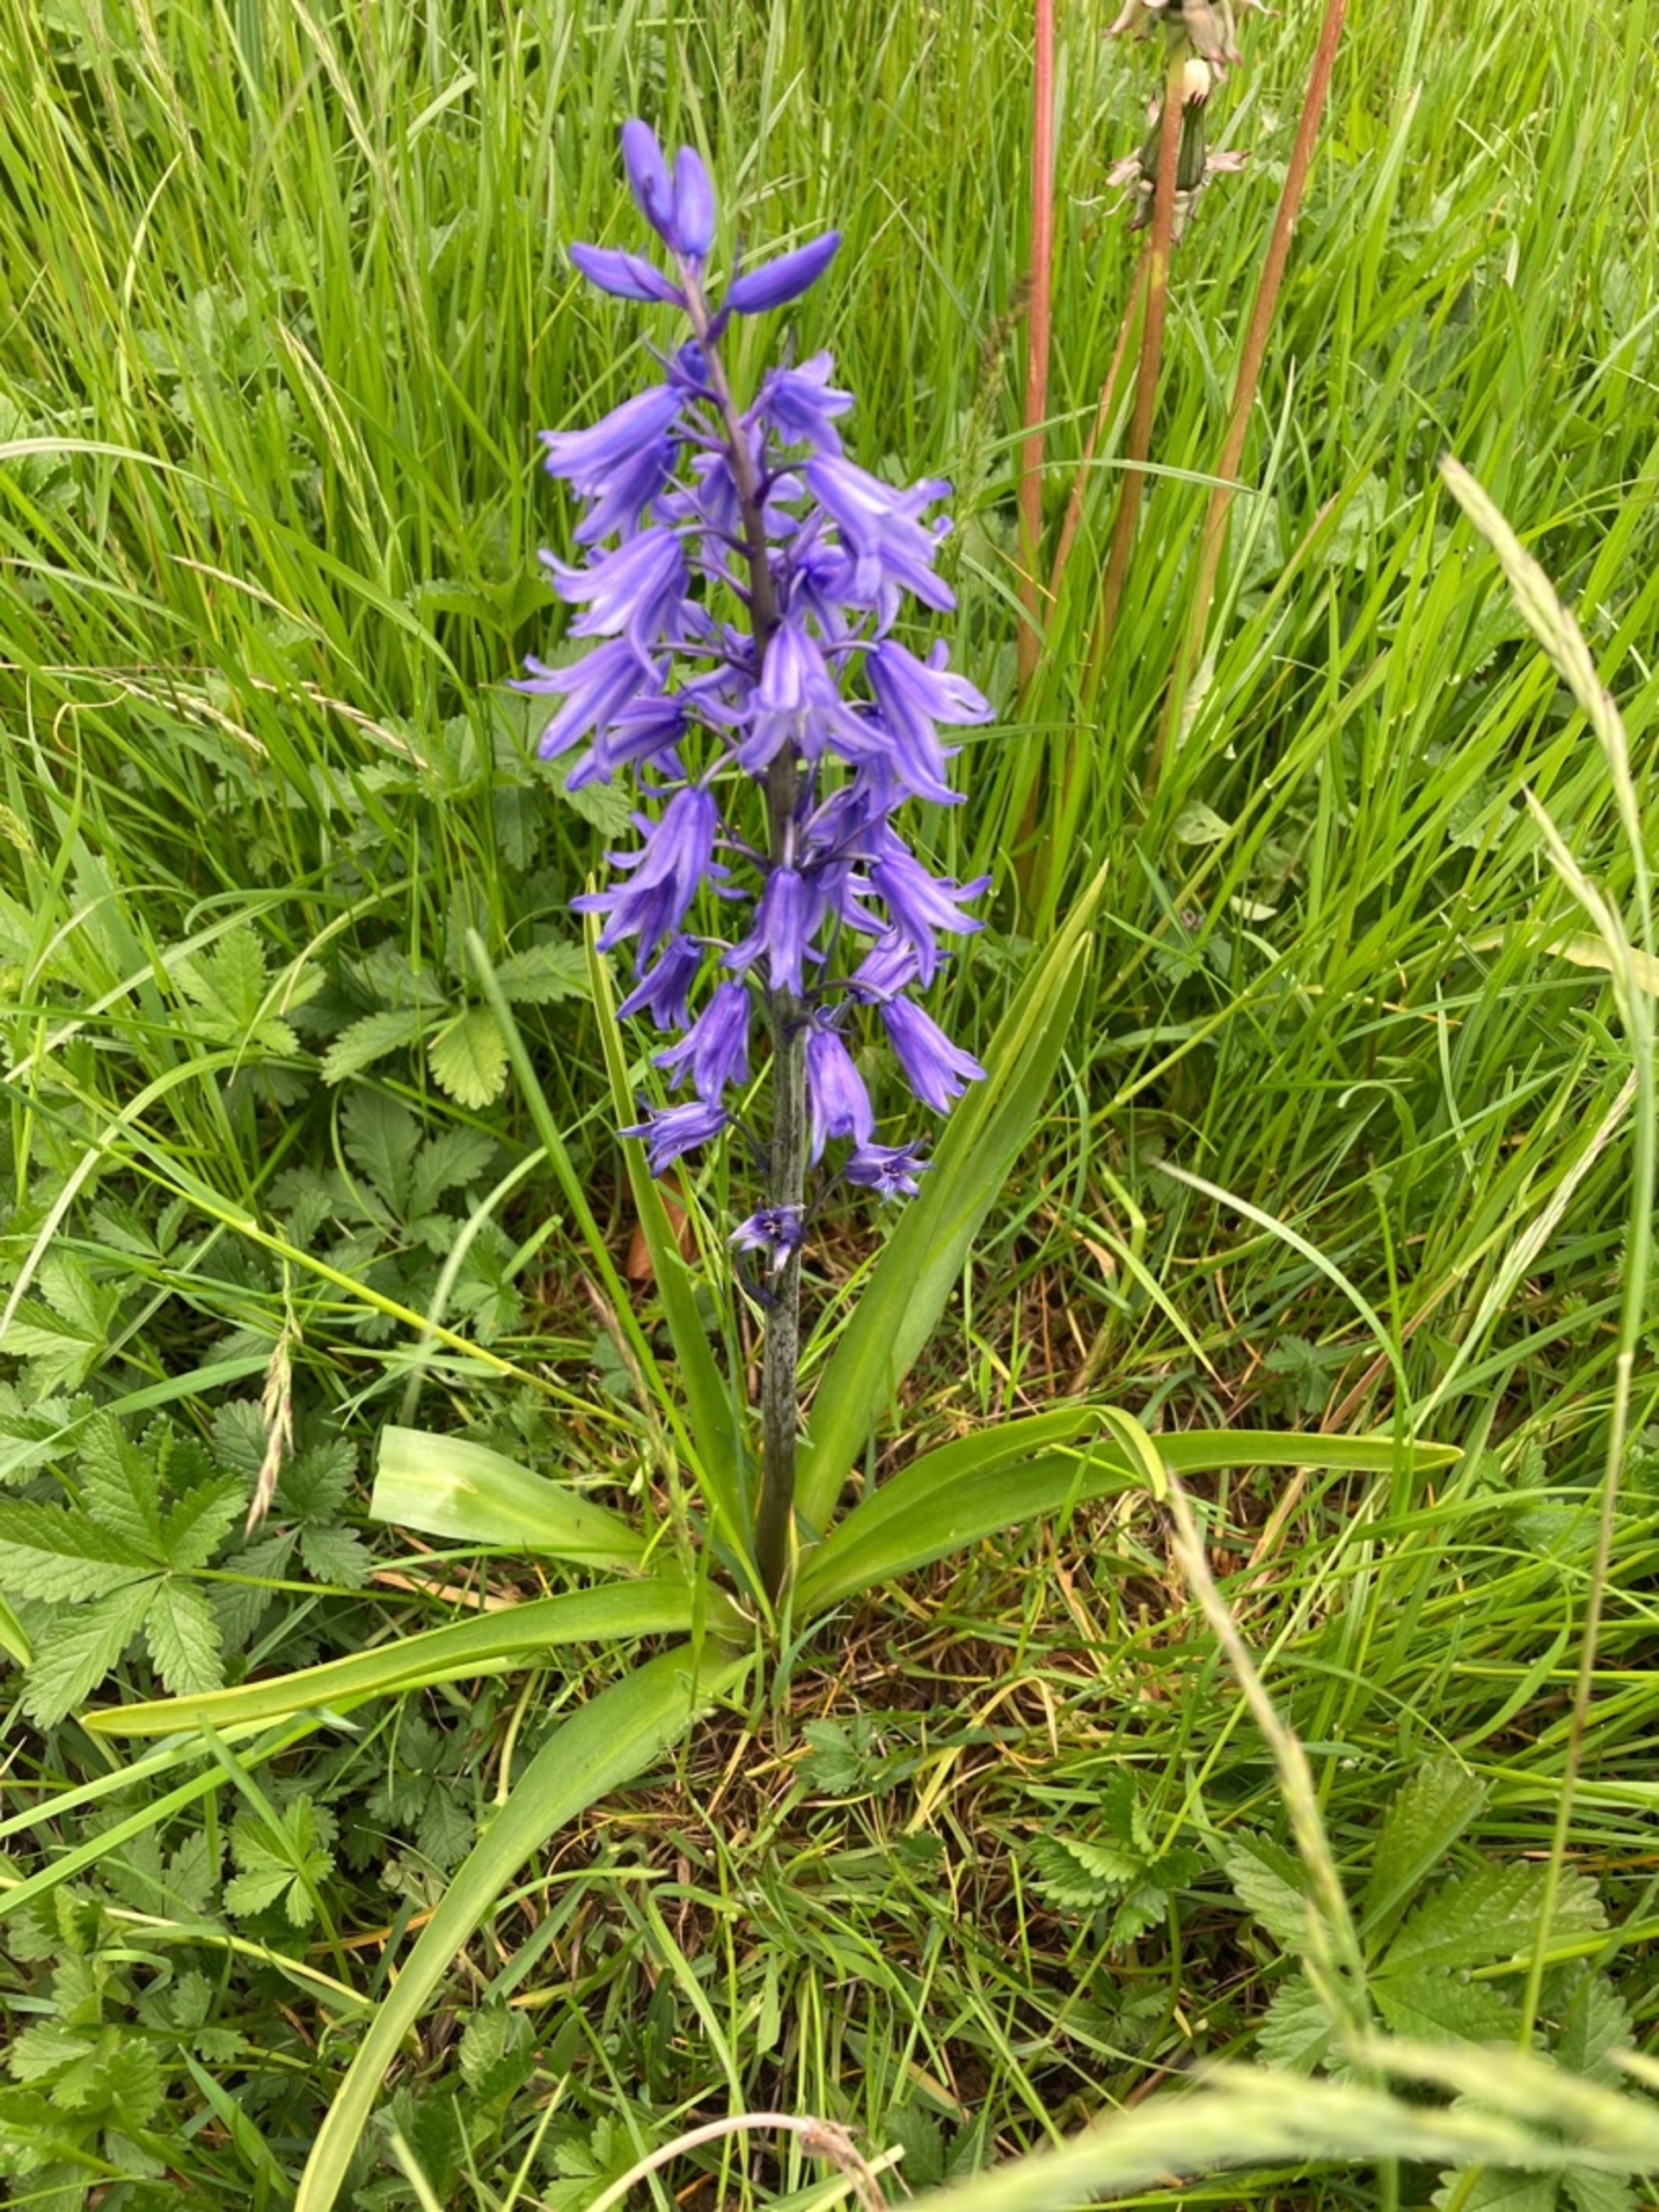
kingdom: Plantae
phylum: Tracheophyta
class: Liliopsida
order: Asparagales
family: Asparagaceae
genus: Hyacinthoides
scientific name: Hyacinthoides massartiana
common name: Hybrid-klokkeskilla
